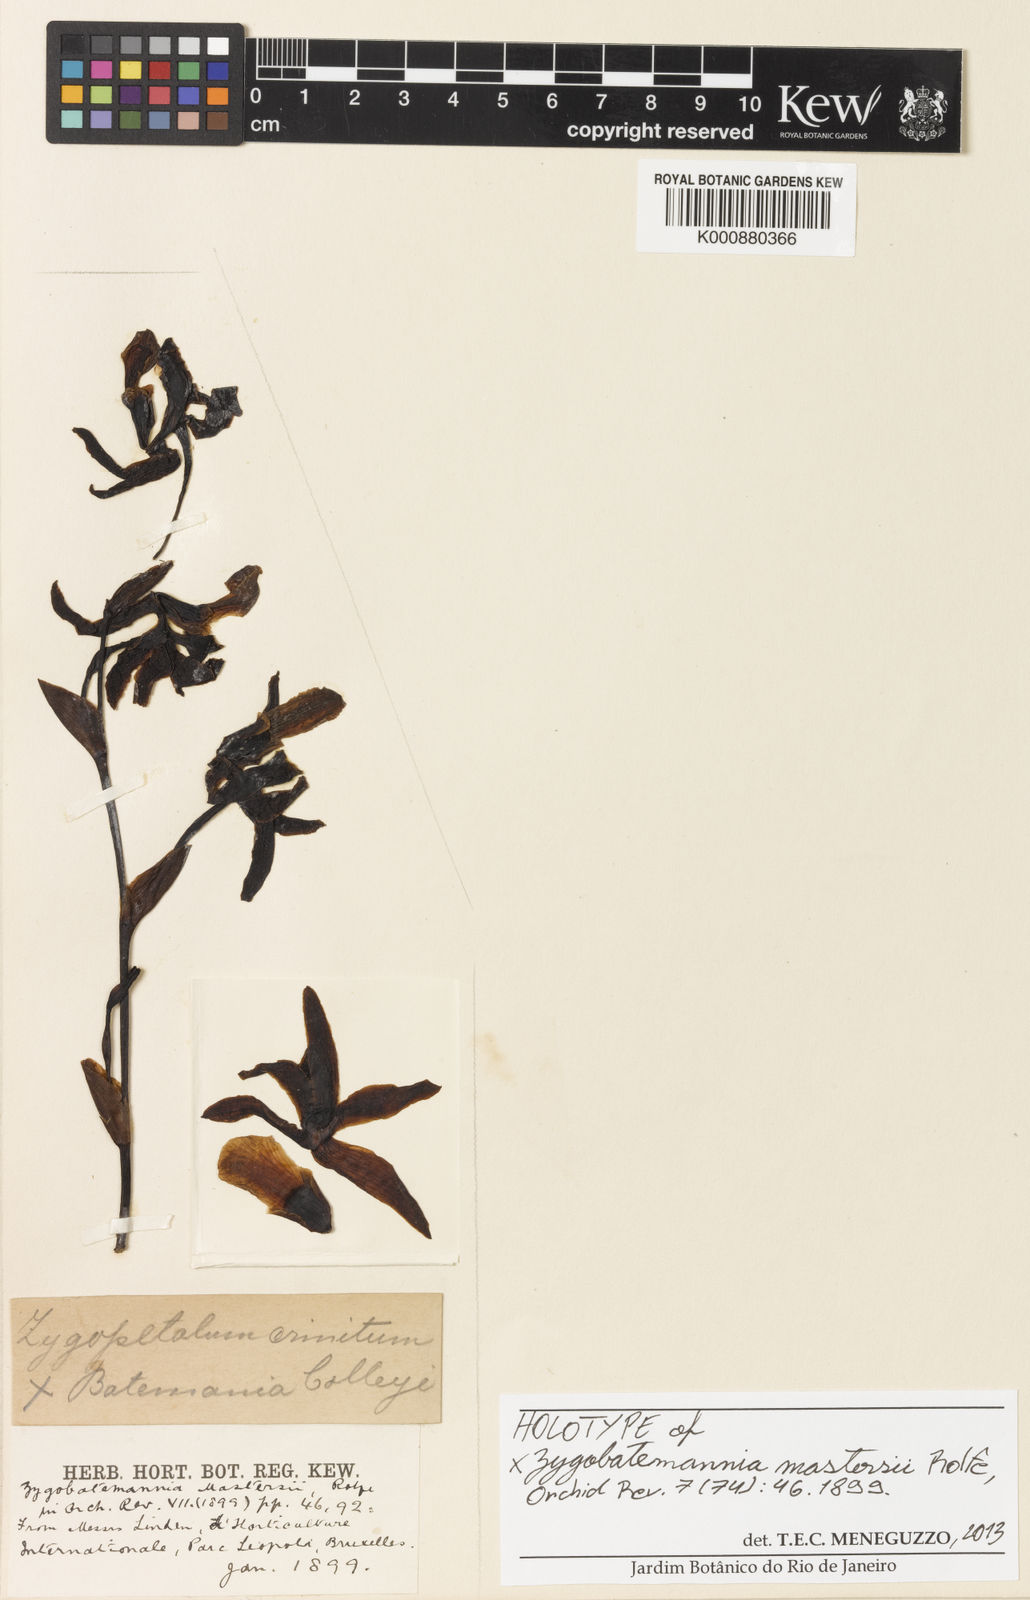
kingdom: Plantae
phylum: Tracheophyta
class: Liliopsida
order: Asparagales
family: Orchidaceae
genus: Zygobatemannia
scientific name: Zygobatemannia
